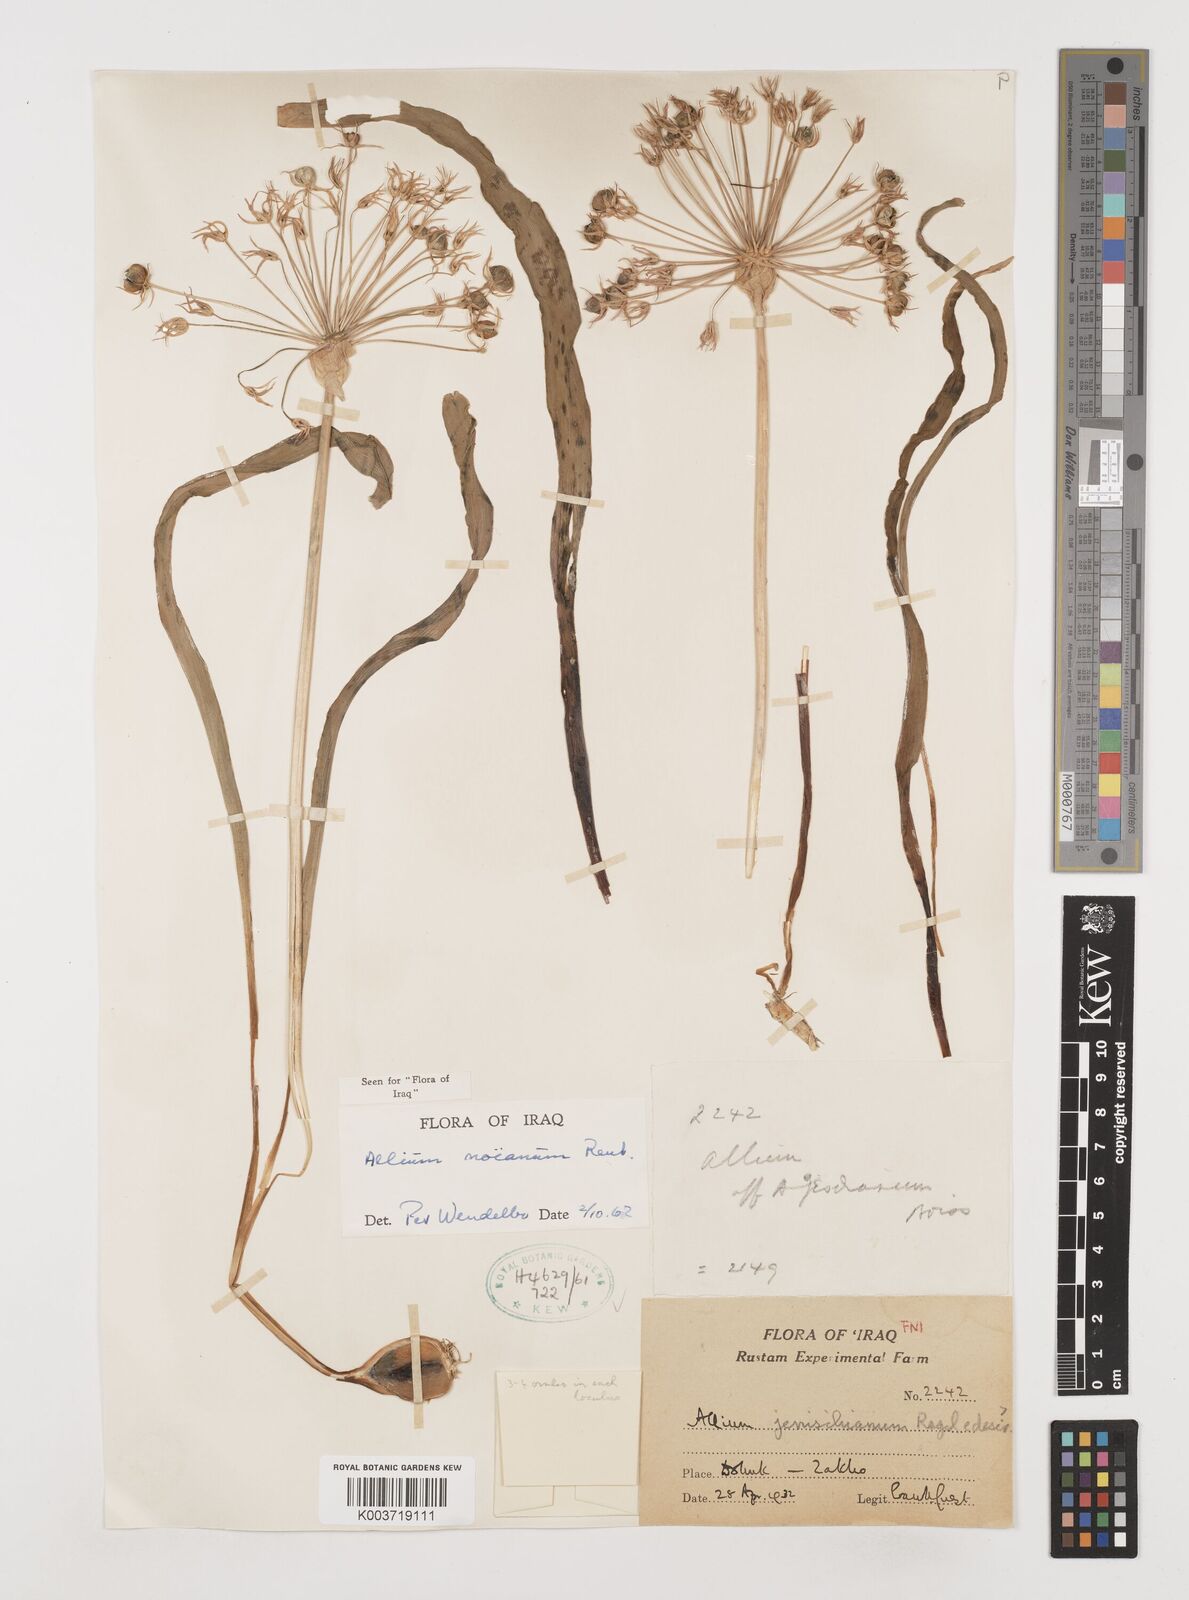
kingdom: Plantae
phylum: Tracheophyta
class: Liliopsida
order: Asparagales
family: Amaryllidaceae
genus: Allium
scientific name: Allium noeanum
